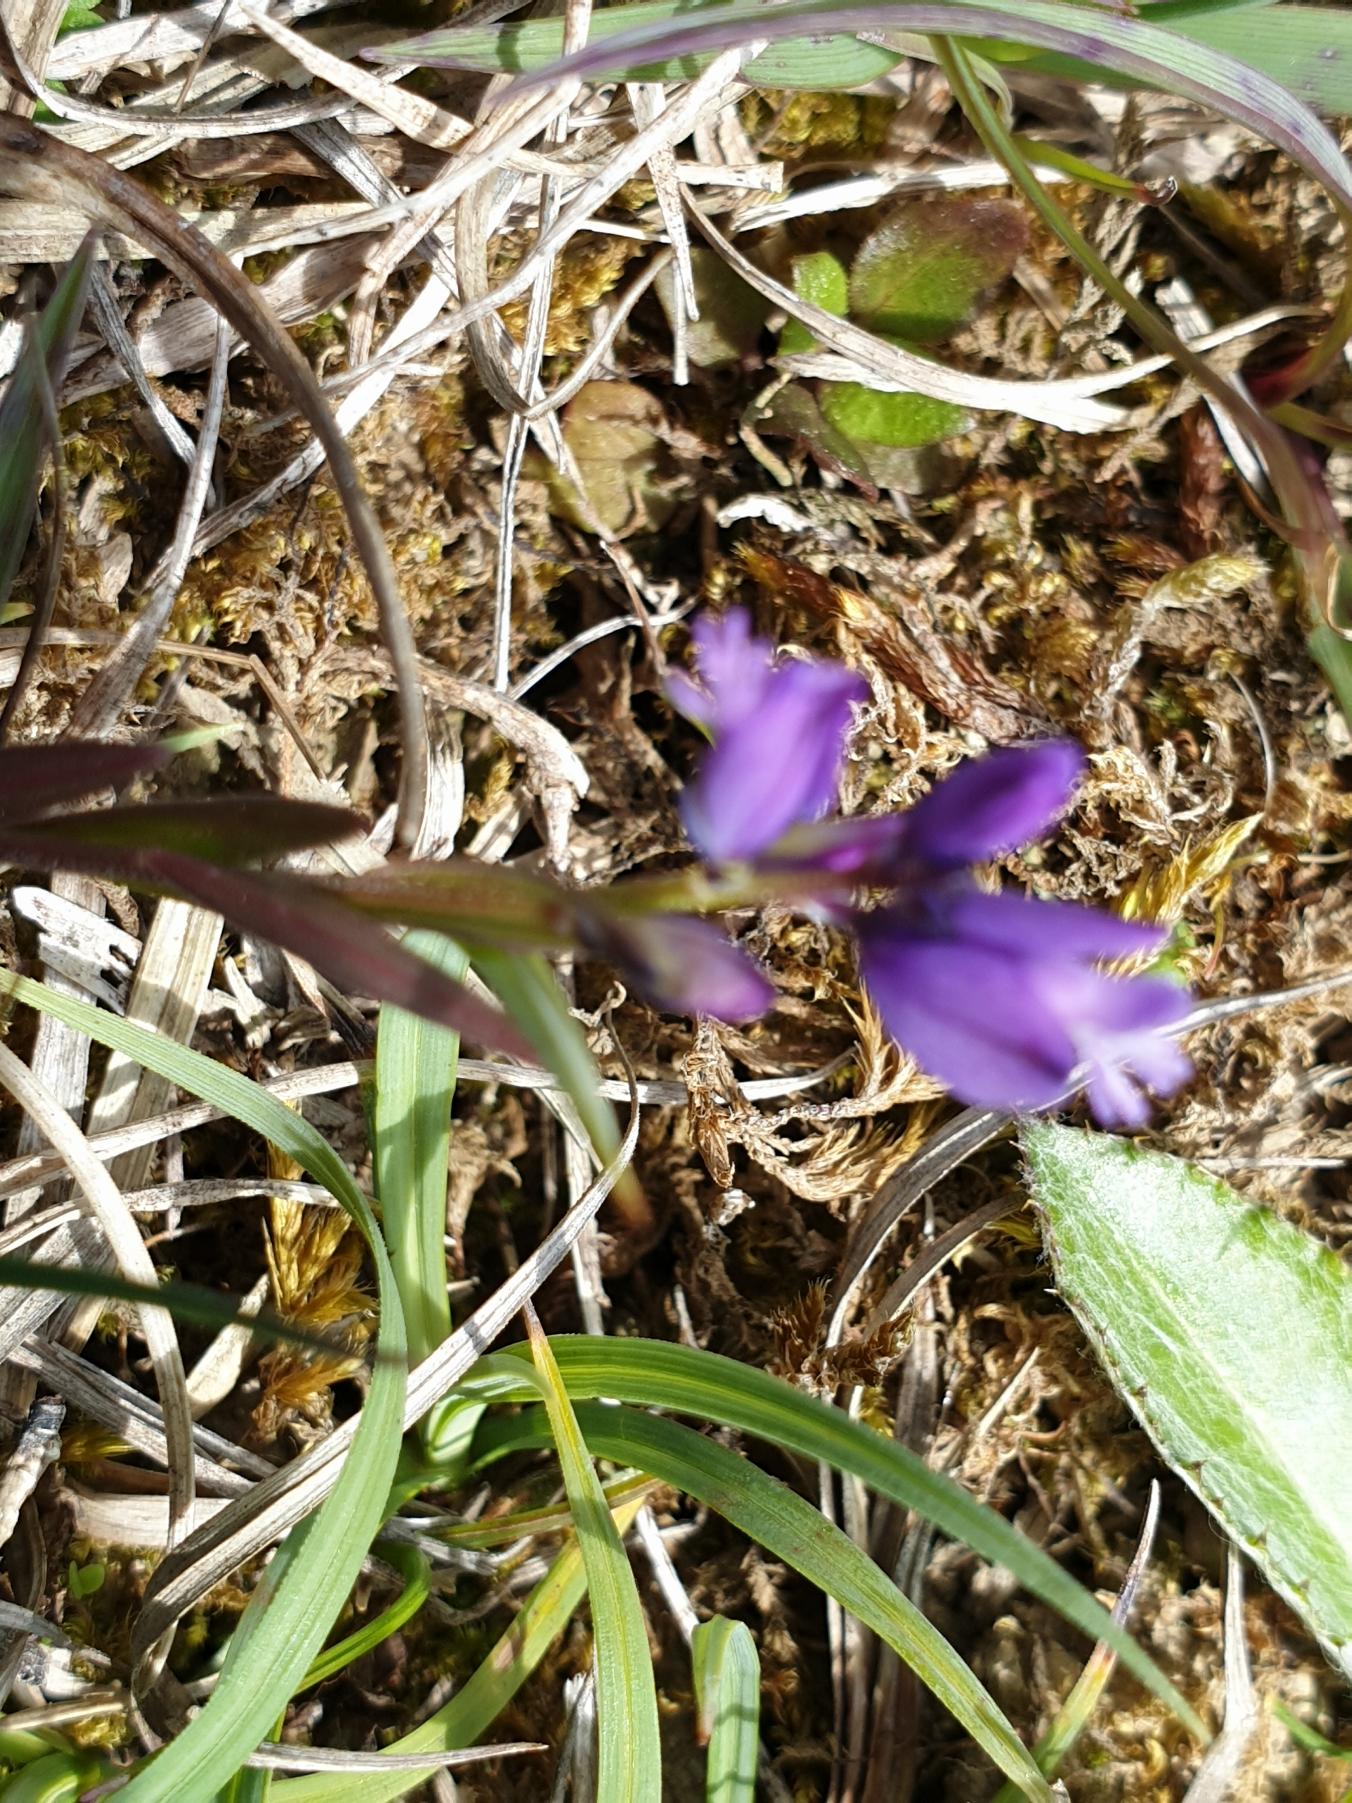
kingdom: Plantae
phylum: Tracheophyta
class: Magnoliopsida
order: Fabales
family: Polygalaceae
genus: Polygala
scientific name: Polygala vulgaris
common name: Almindelig mælkeurt
